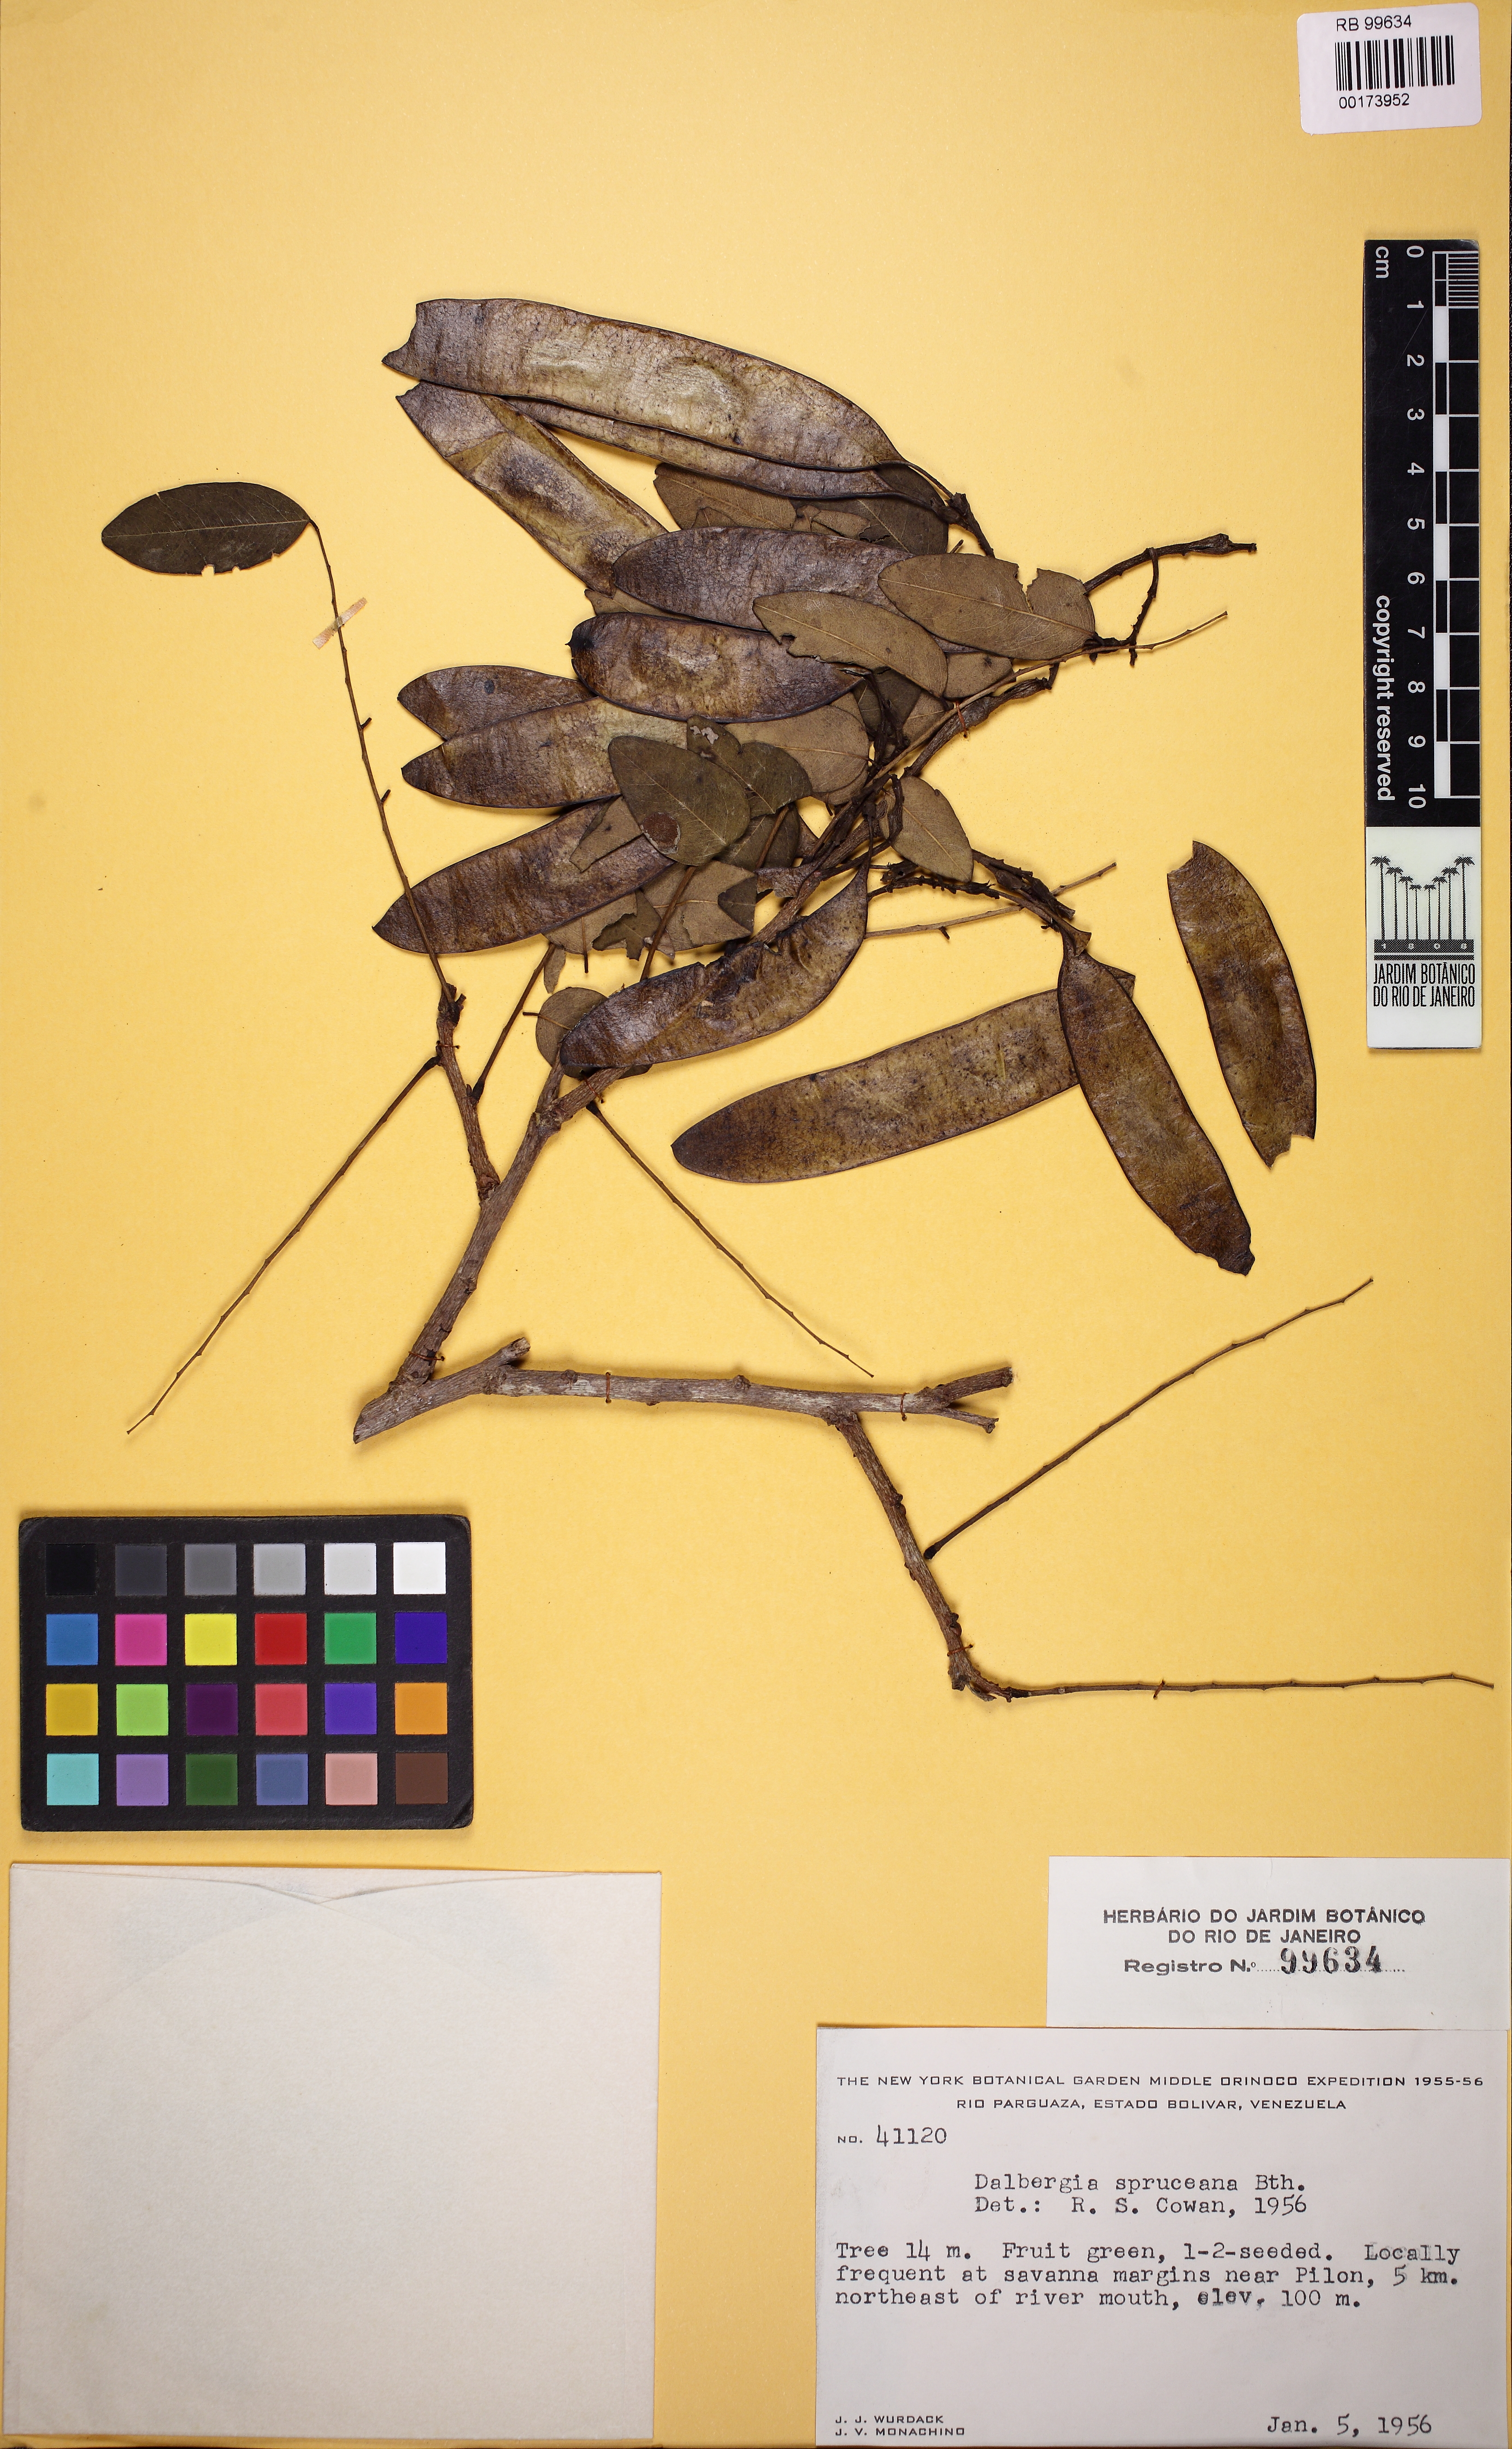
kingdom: Plantae
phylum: Tracheophyta
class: Magnoliopsida
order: Fabales
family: Fabaceae
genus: Dalbergia
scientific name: Dalbergia spruceana
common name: Amazon rosewood
